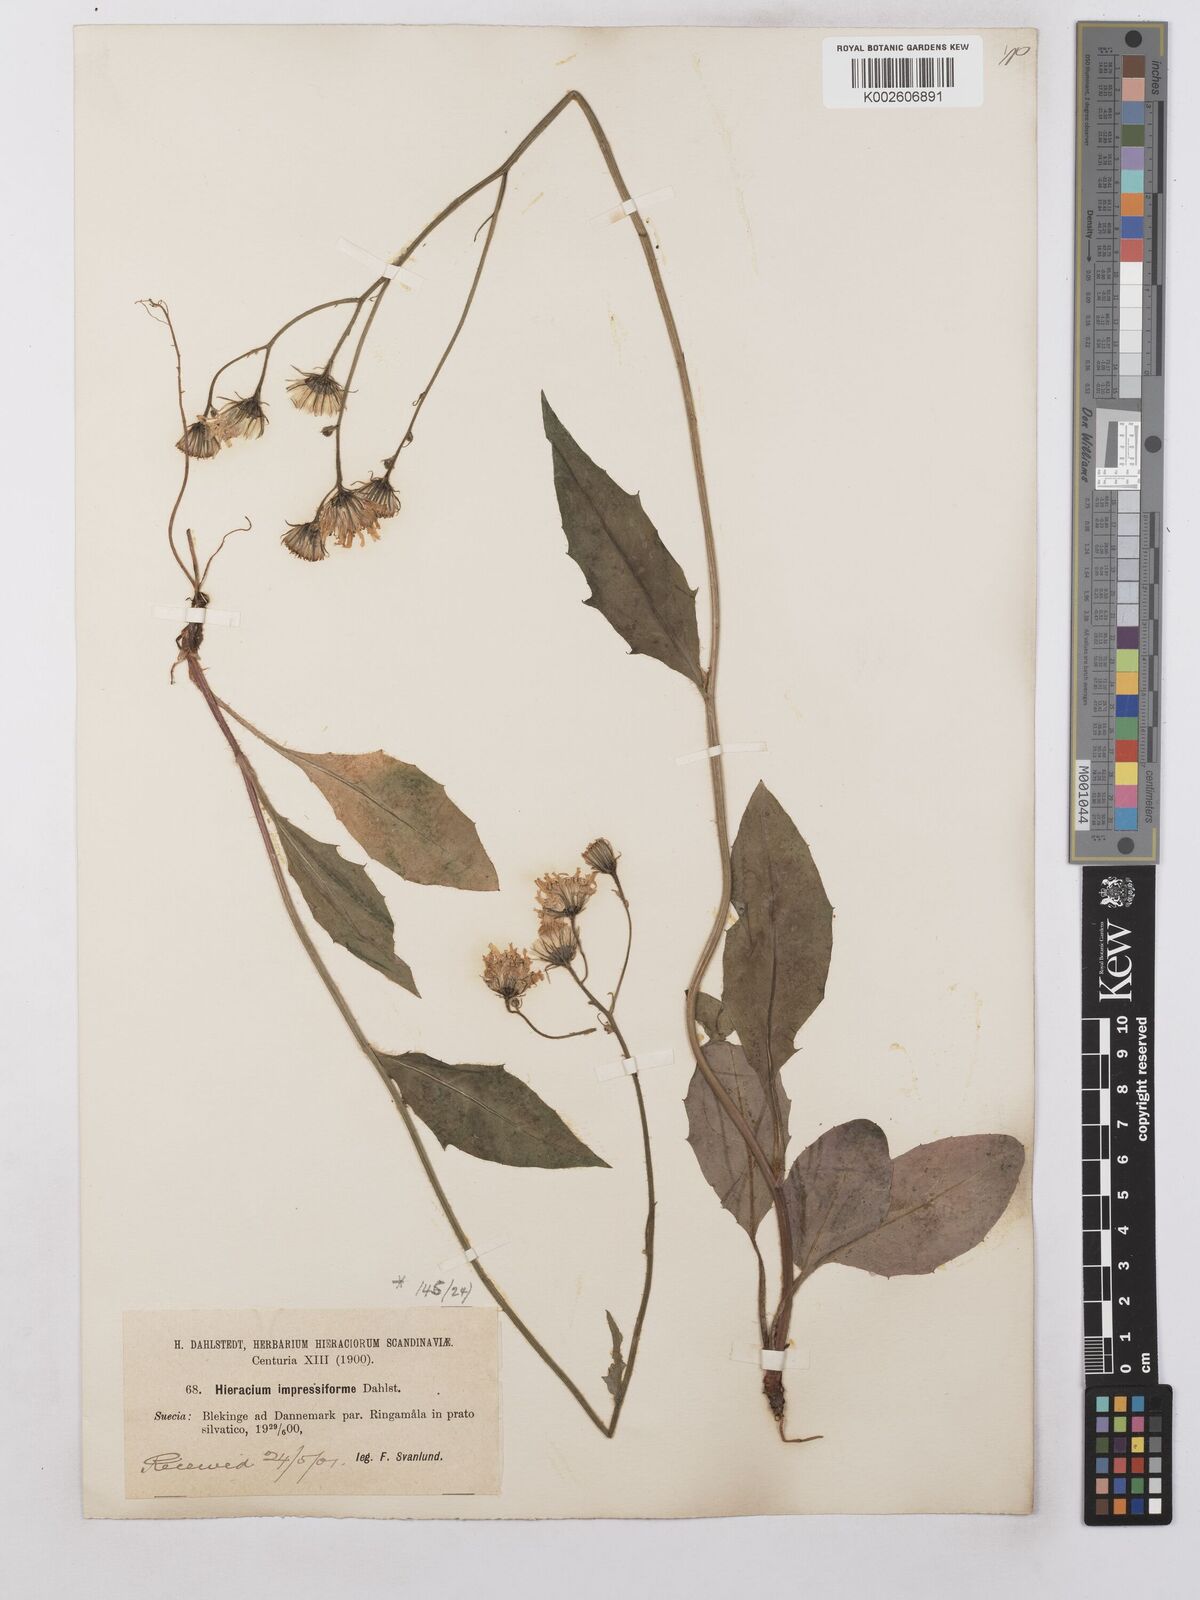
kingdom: Plantae
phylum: Tracheophyta
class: Magnoliopsida
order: Asterales
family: Asteraceae
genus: Hieracium
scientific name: Hieracium levicaule
